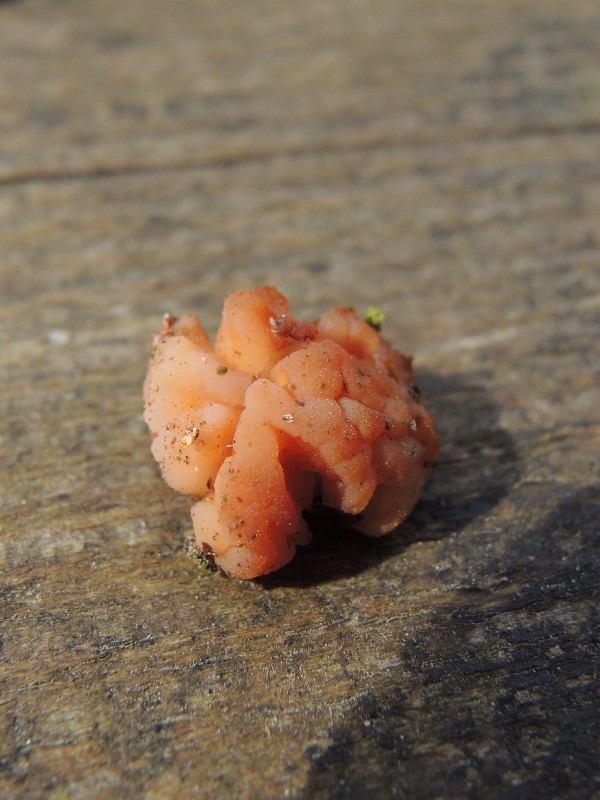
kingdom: Fungi
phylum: Basidiomycota
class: Tremellomycetes
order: Tremellales
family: Naemateliaceae
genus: Naematelia
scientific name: Naematelia encephala
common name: fyrre-bævresvamp
